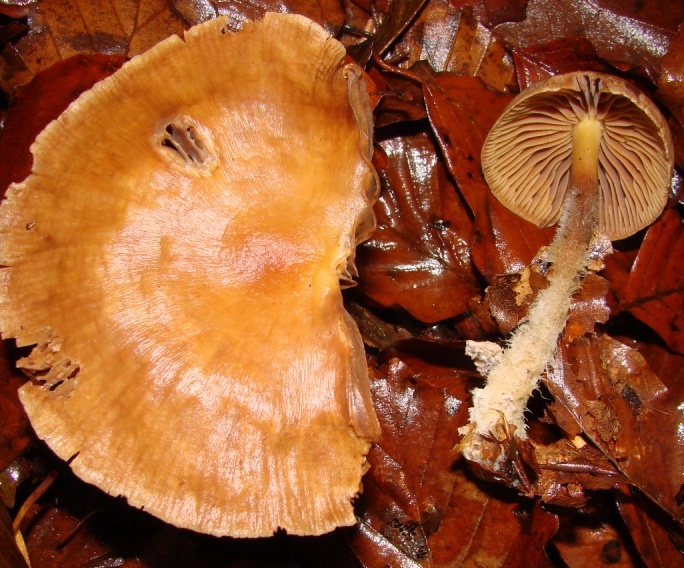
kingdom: Fungi
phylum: Basidiomycota
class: Agaricomycetes
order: Agaricales
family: Omphalotaceae
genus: Collybiopsis
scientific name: Collybiopsis peronata
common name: bestøvlet fladhat
